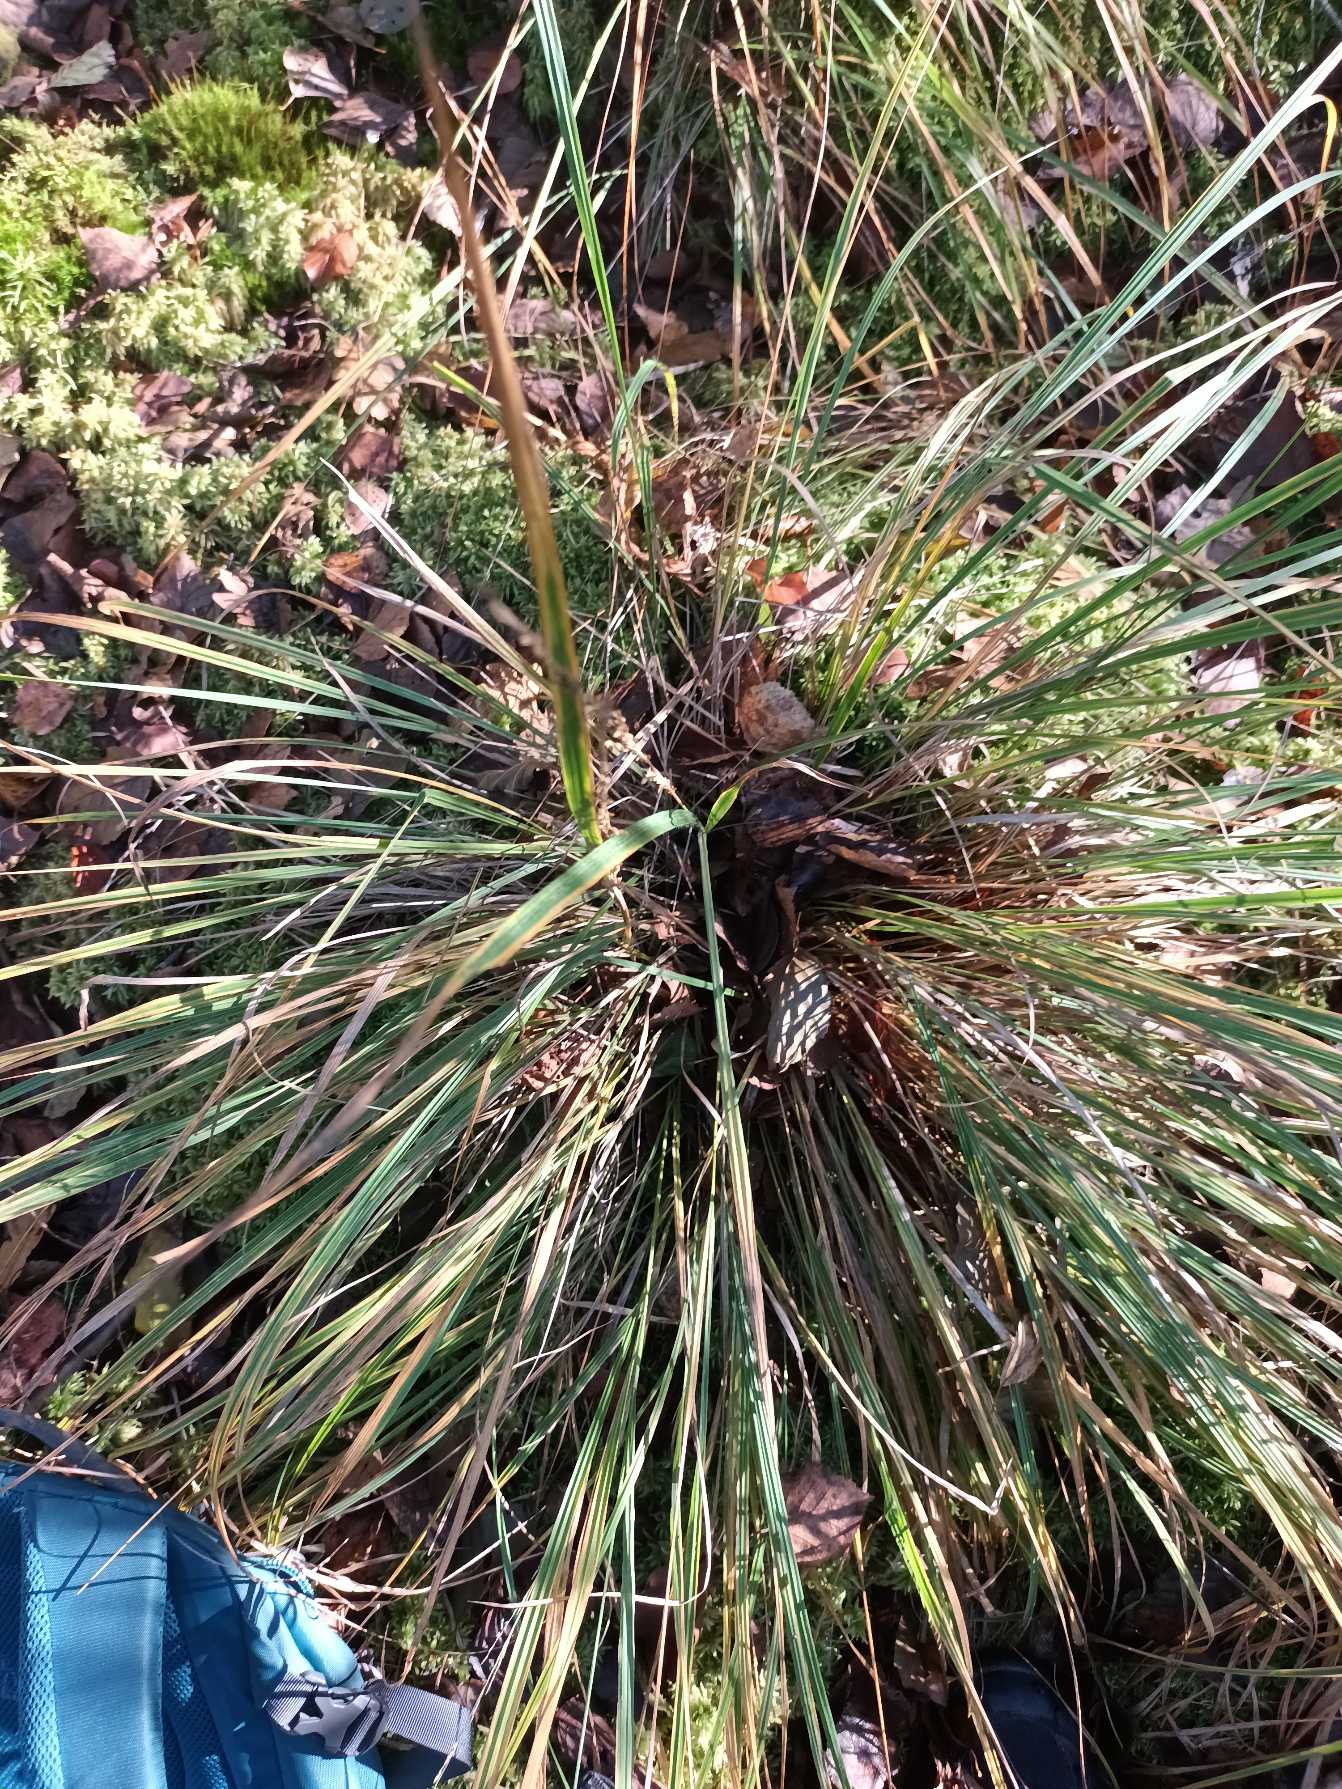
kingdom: Plantae
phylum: Tracheophyta
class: Liliopsida
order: Poales
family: Poaceae
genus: Molinia
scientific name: Molinia caerulea
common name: Blåtop
